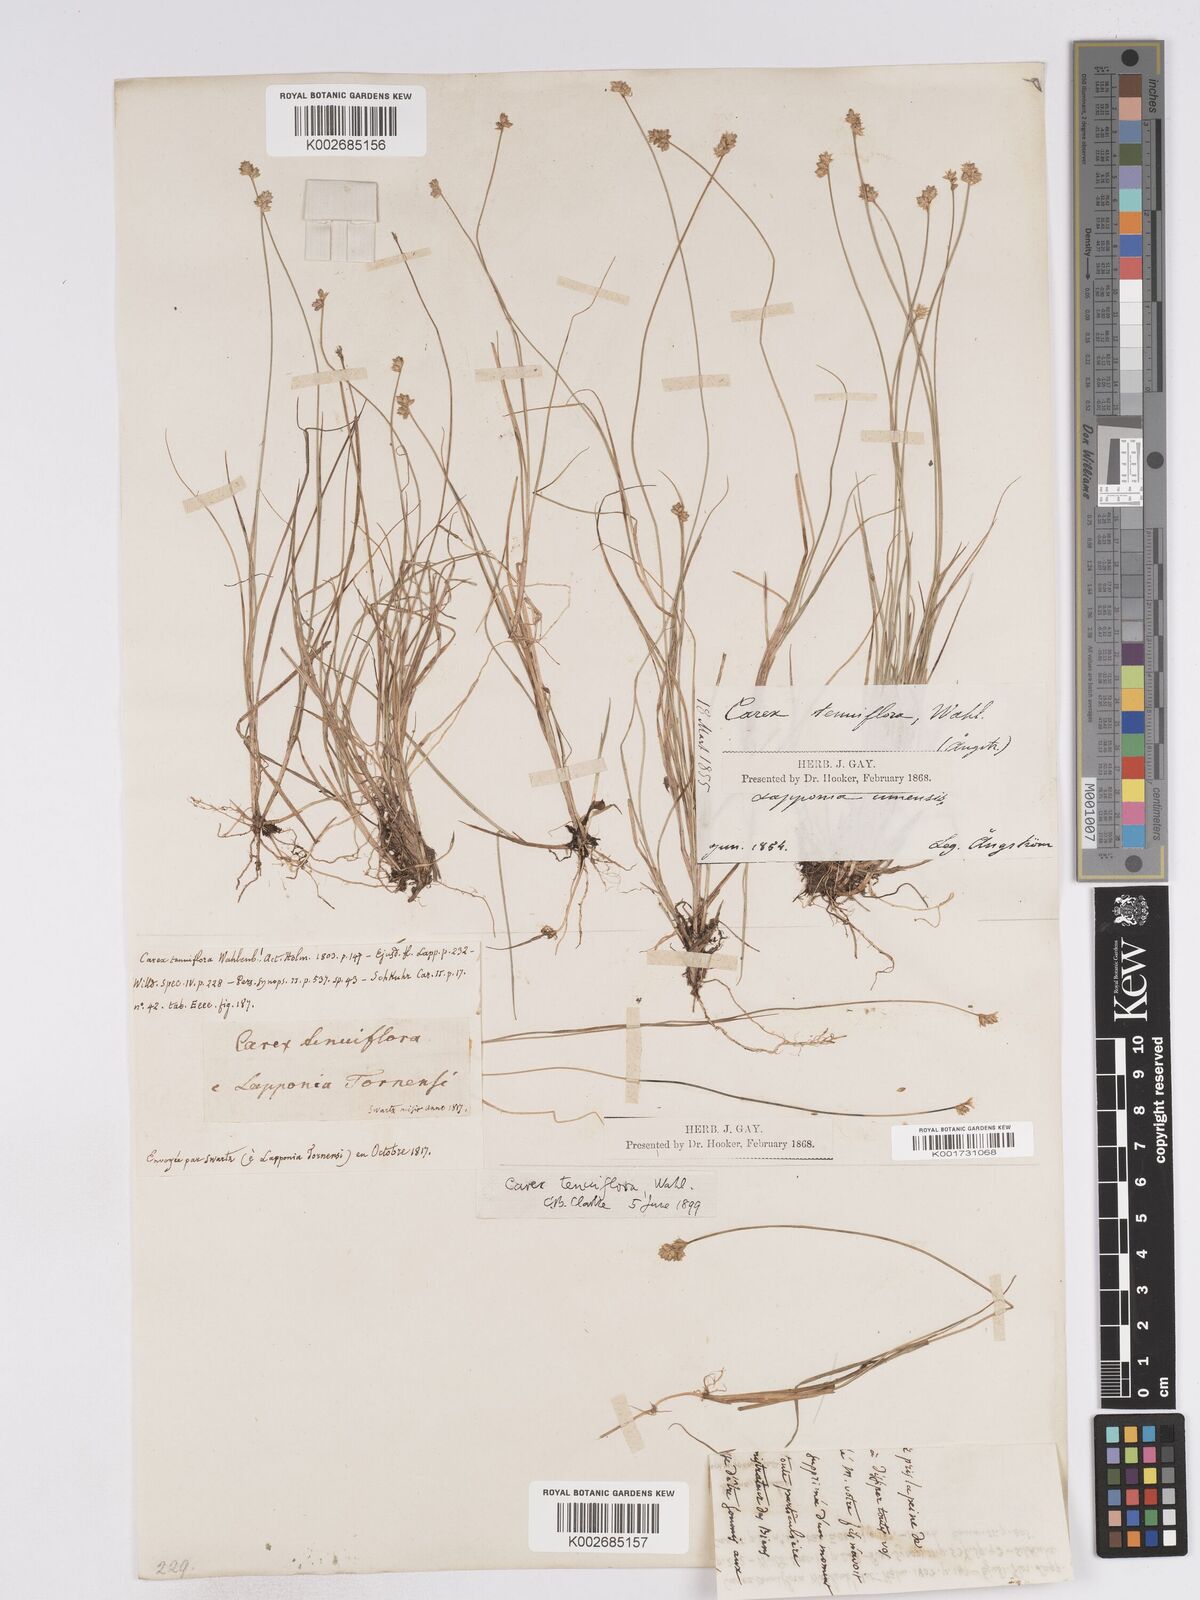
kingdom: Plantae
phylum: Tracheophyta
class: Liliopsida
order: Poales
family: Cyperaceae
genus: Carex
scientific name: Carex tenuiflora
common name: Sparse-flowered sedge
